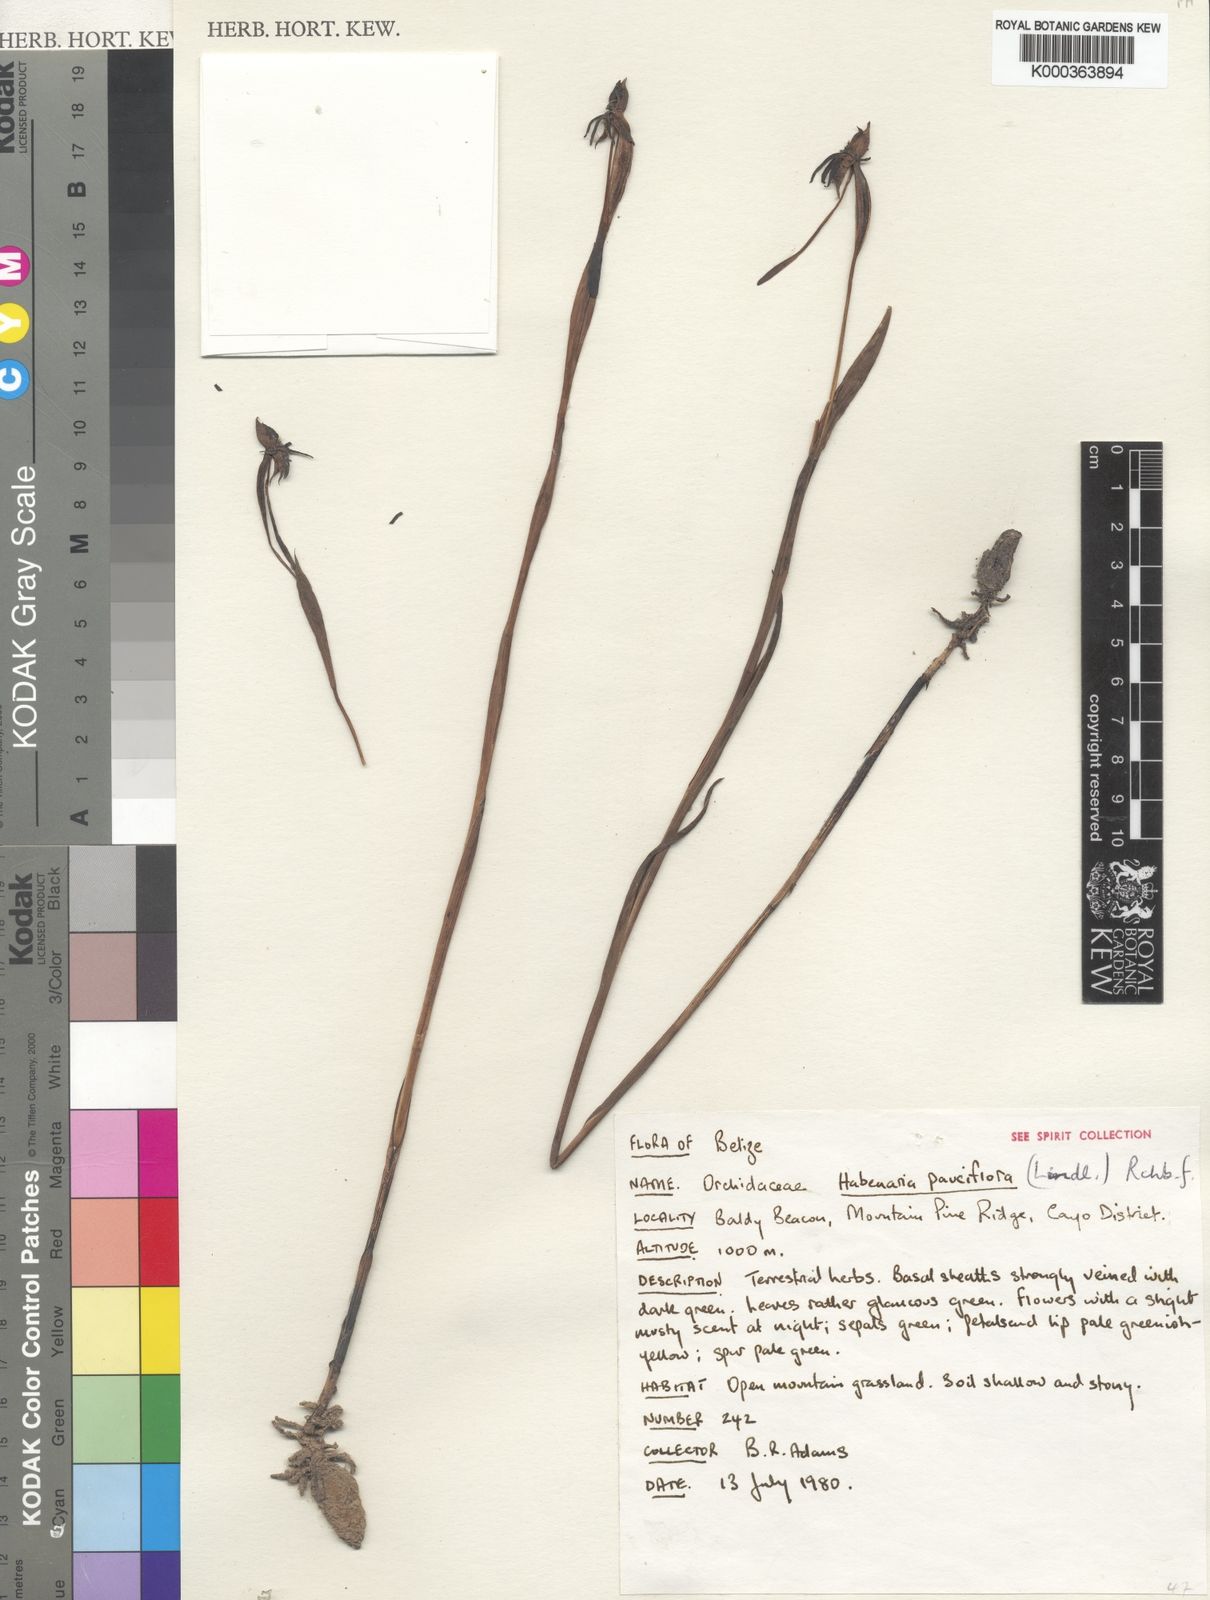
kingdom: Plantae
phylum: Tracheophyta
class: Liliopsida
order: Asparagales
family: Orchidaceae
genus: Habenaria
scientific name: Habenaria trifida
